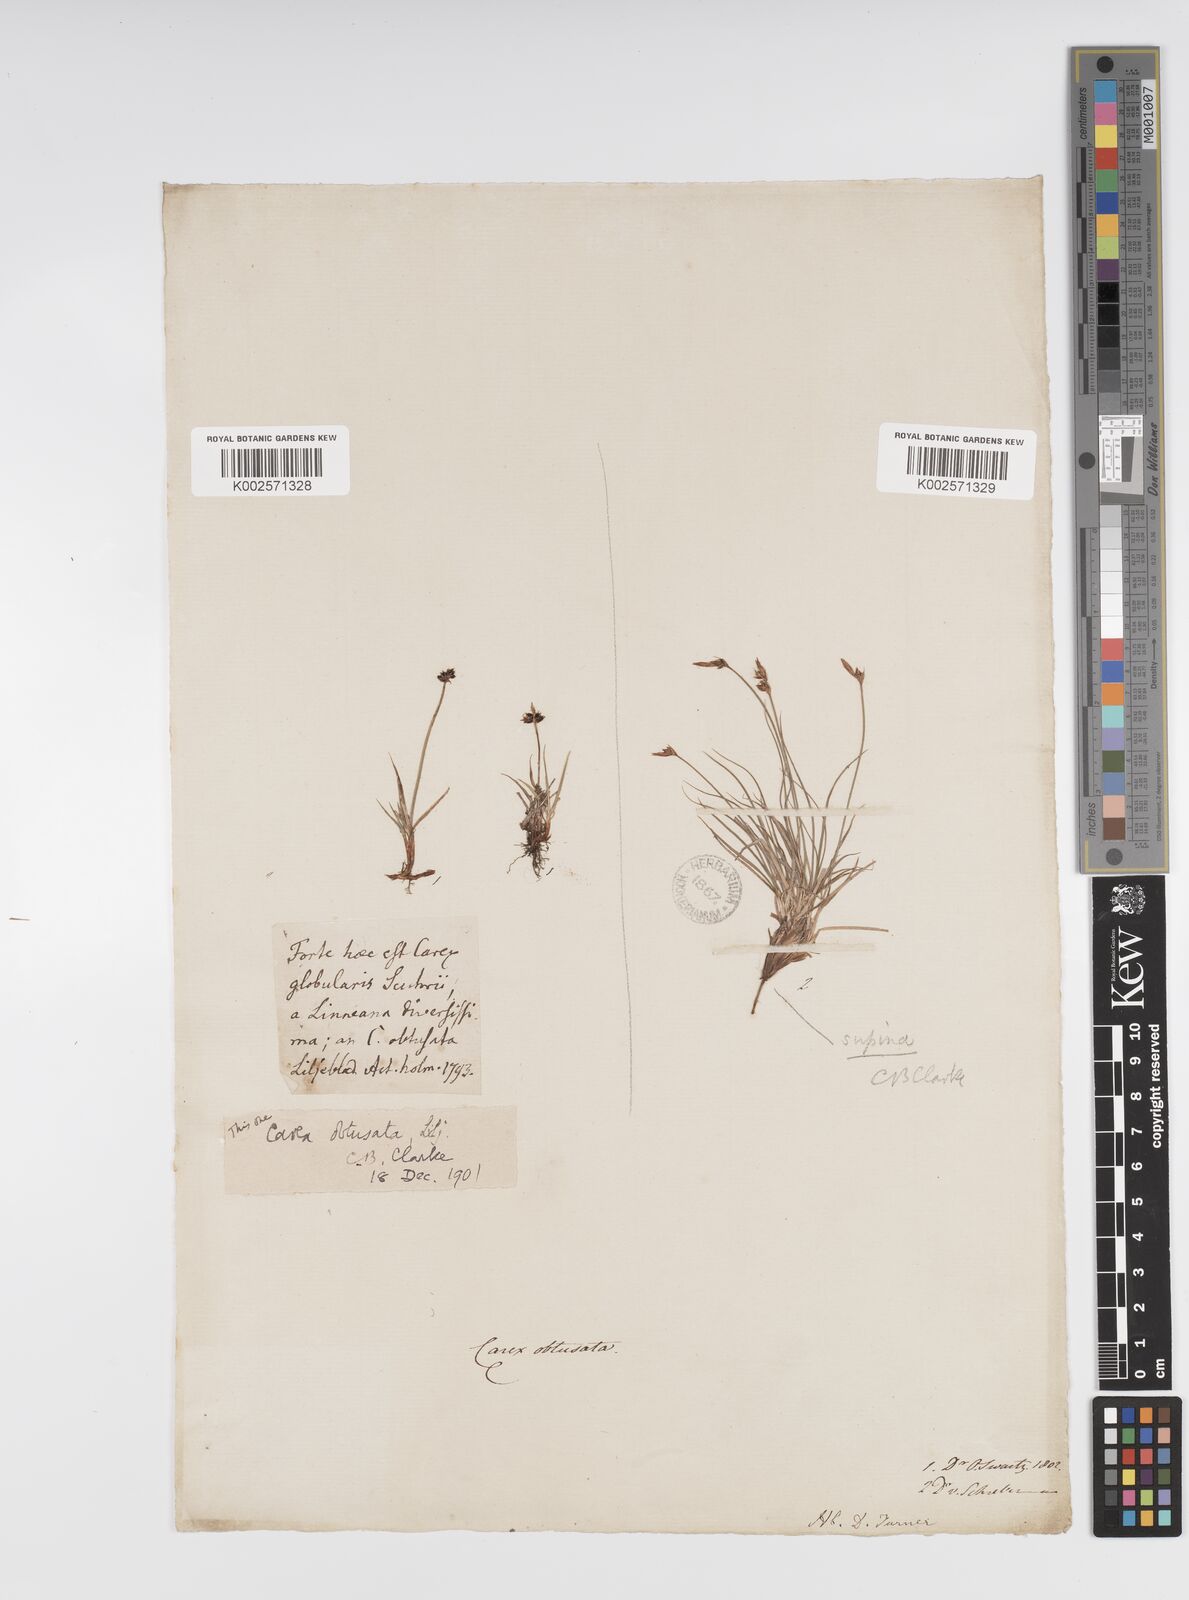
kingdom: Plantae
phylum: Tracheophyta
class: Liliopsida
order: Poales
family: Cyperaceae
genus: Carex
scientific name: Carex supina
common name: Lying-back sedge
